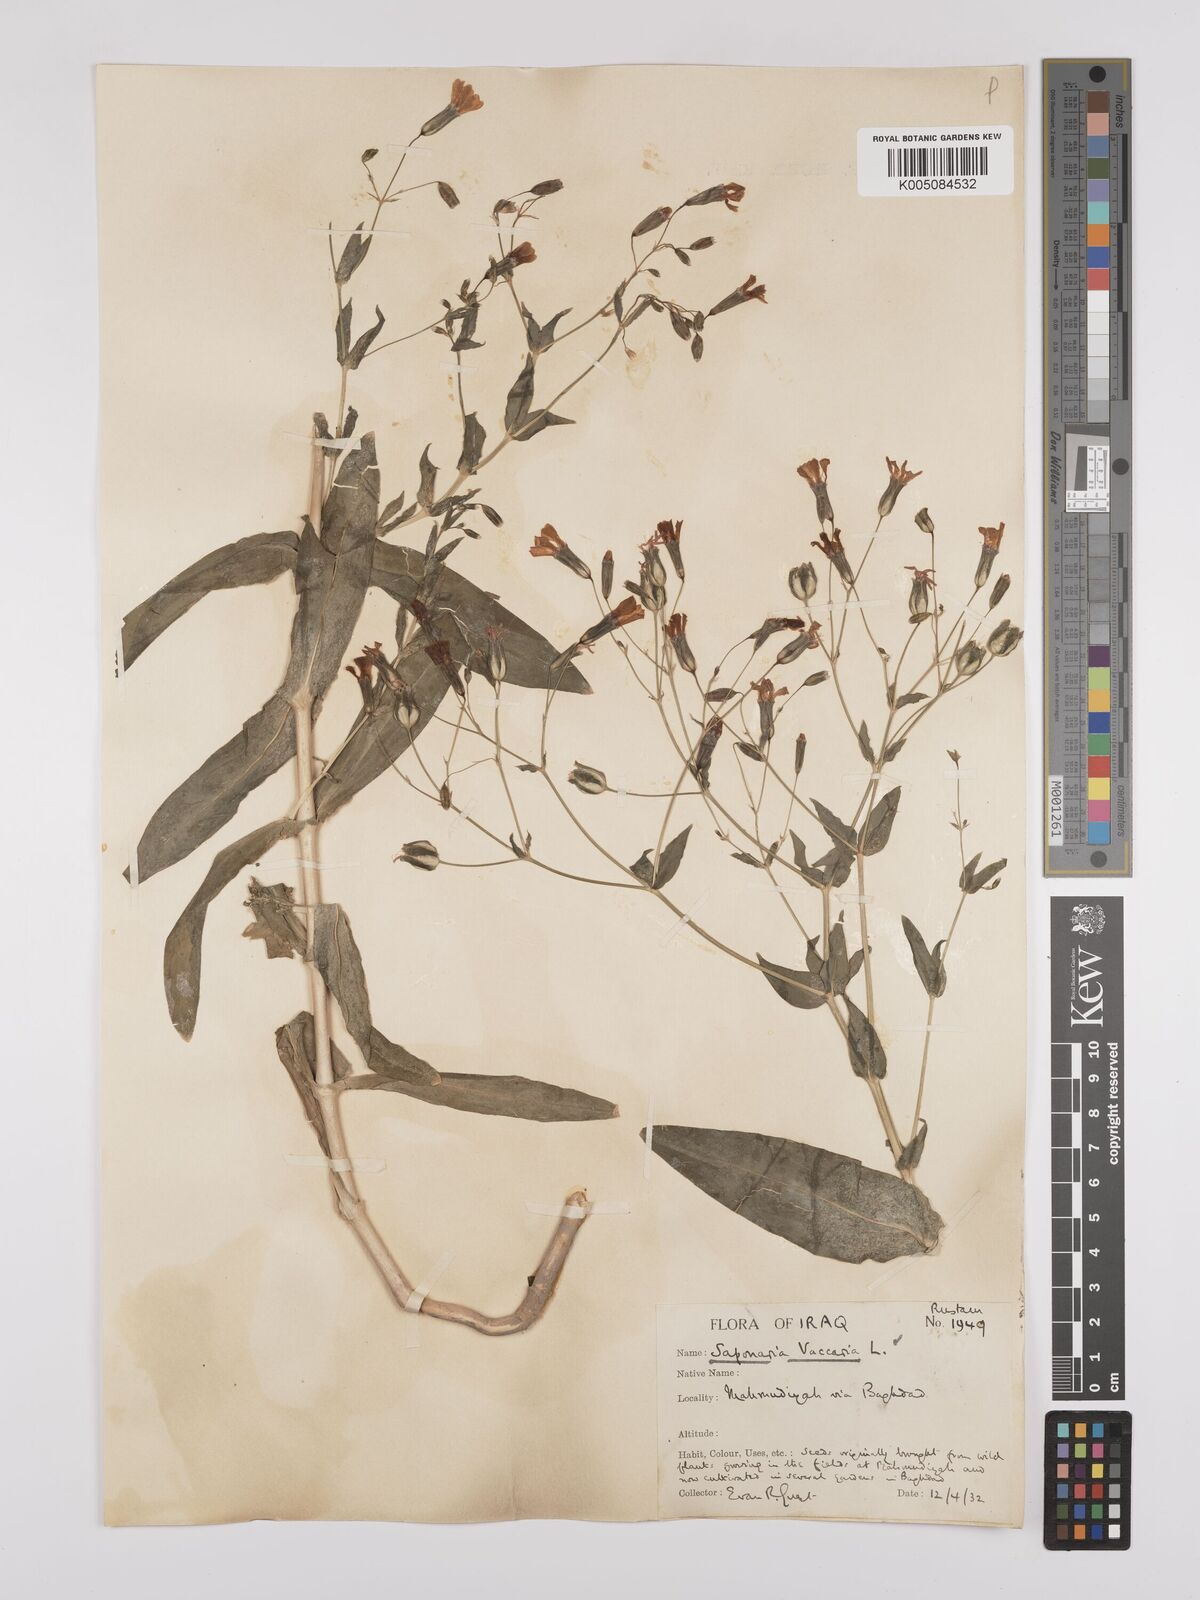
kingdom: Plantae
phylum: Tracheophyta
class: Magnoliopsida
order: Caryophyllales
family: Caryophyllaceae
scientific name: Caryophyllaceae
